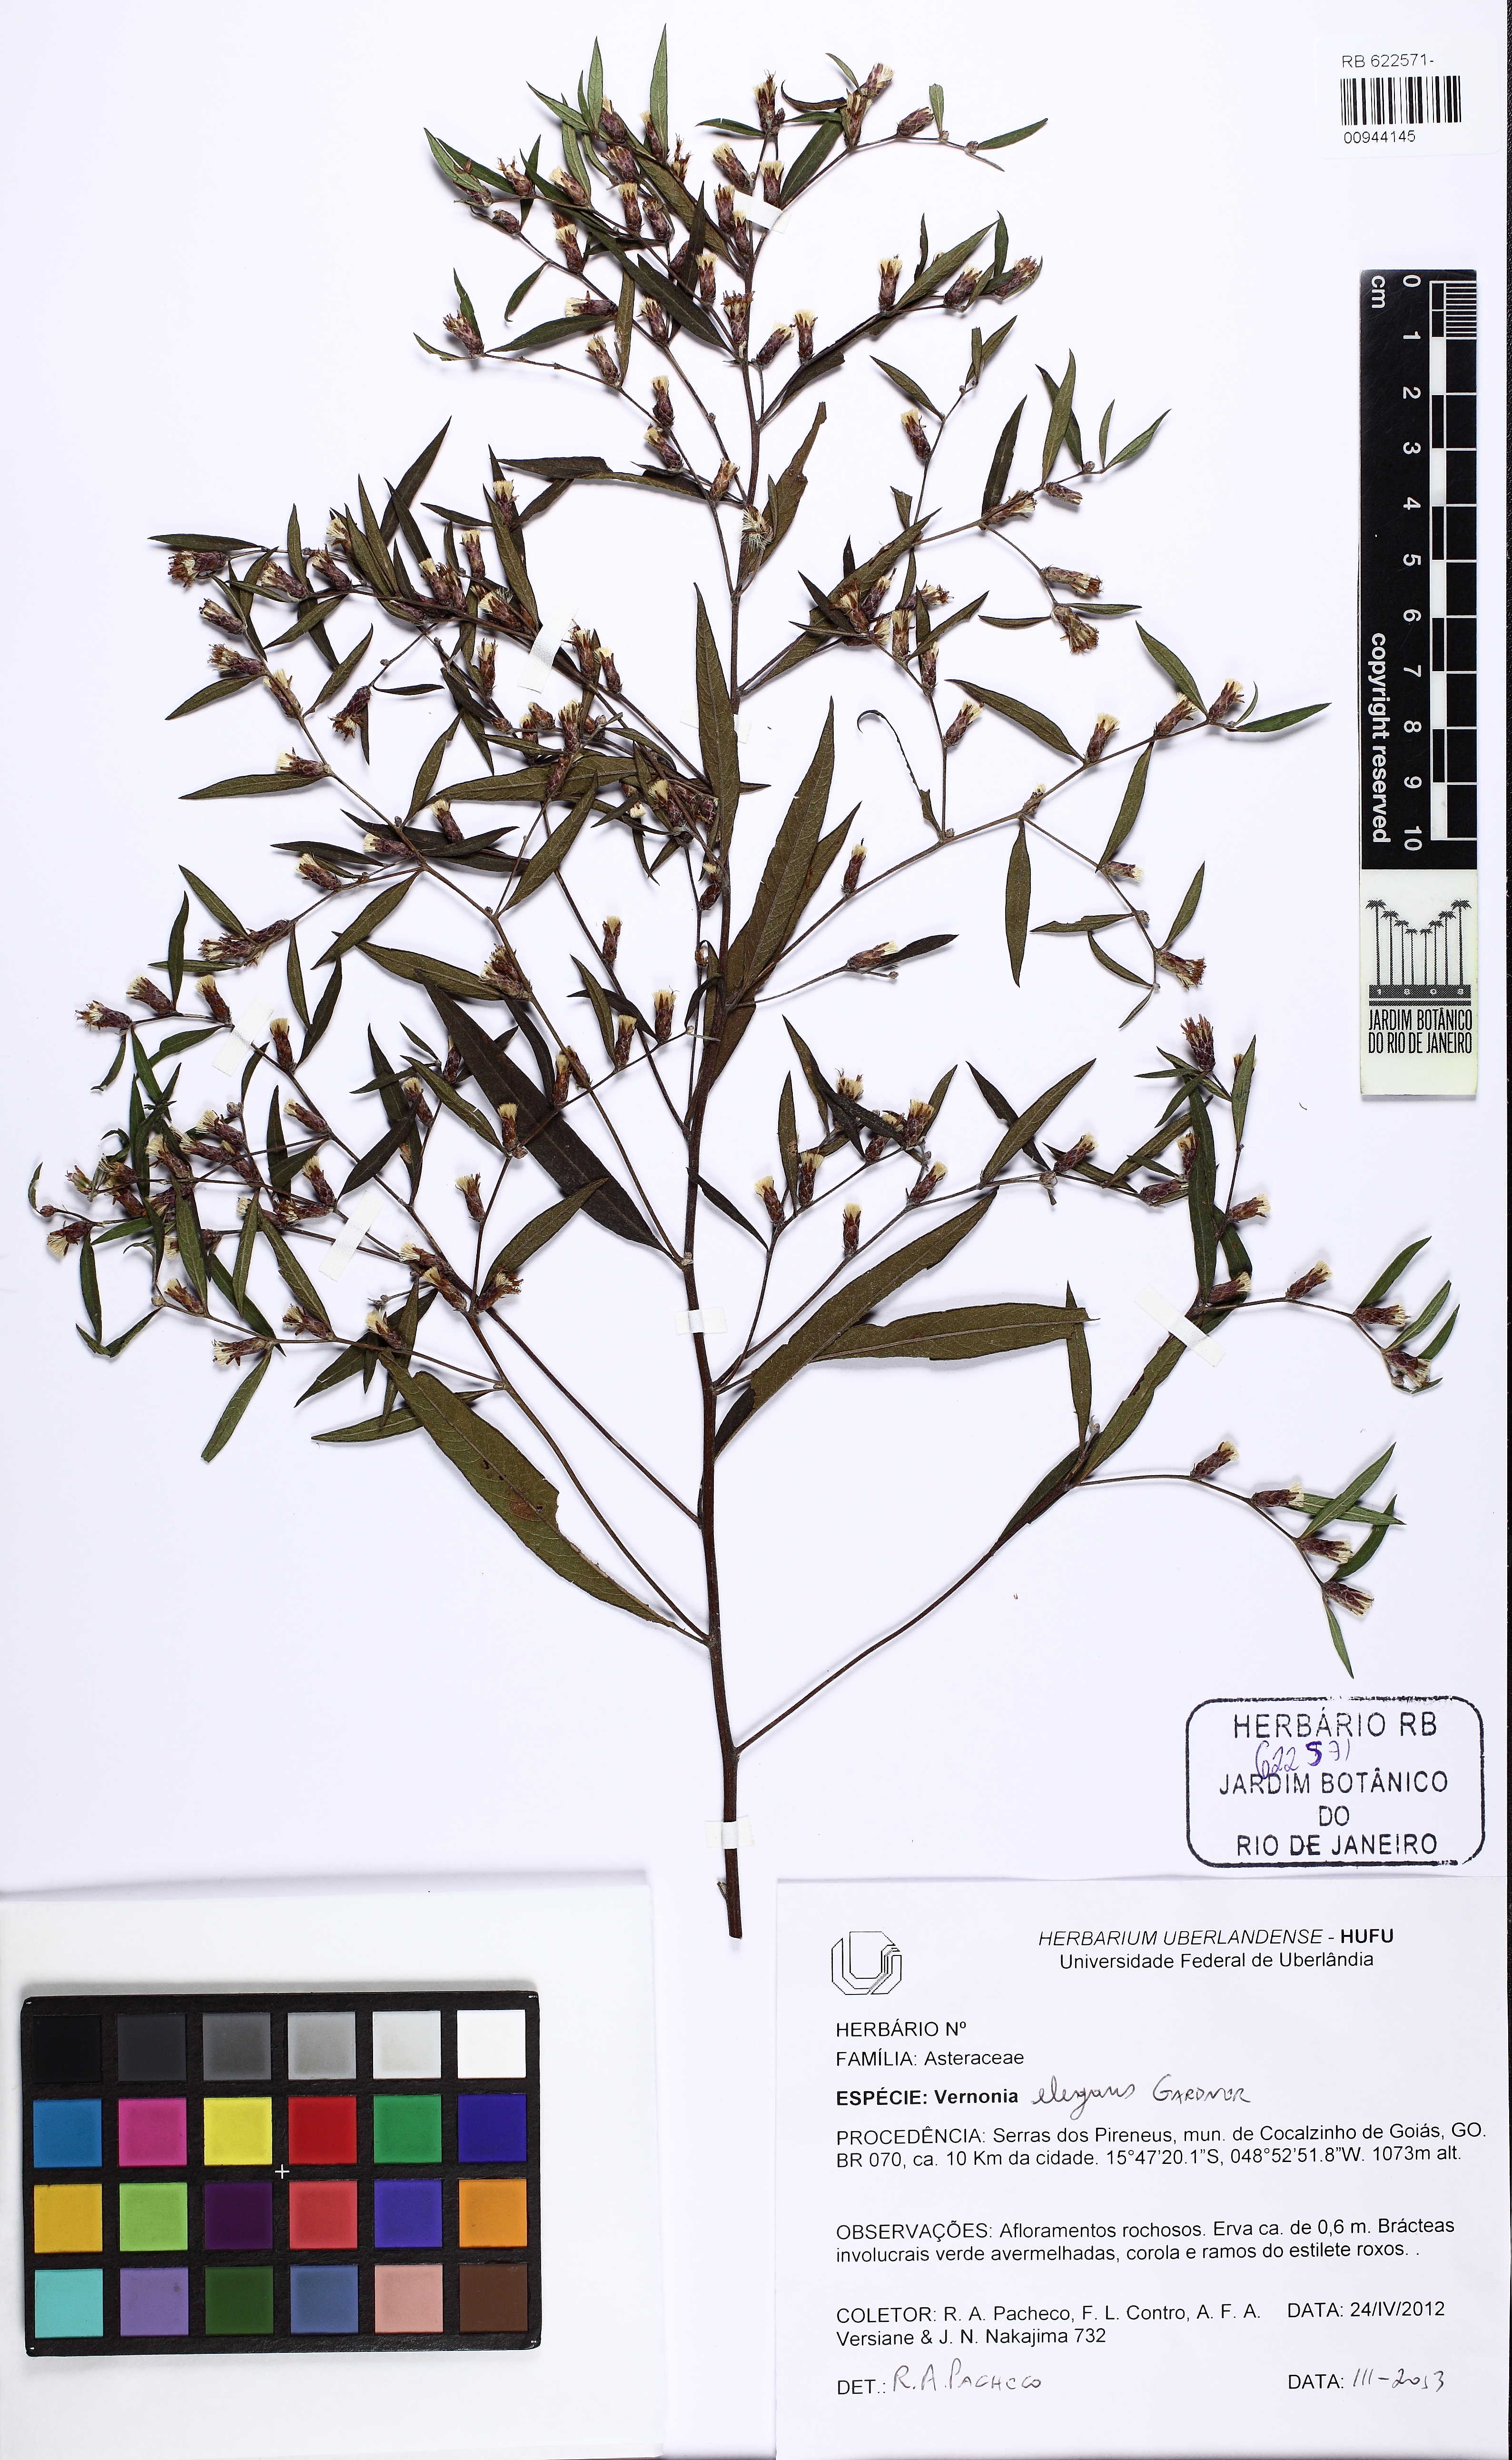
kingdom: Plantae
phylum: Tracheophyta
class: Magnoliopsida
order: Asterales
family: Asteraceae
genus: Lessingianthus
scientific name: Lessingianthus elegans
